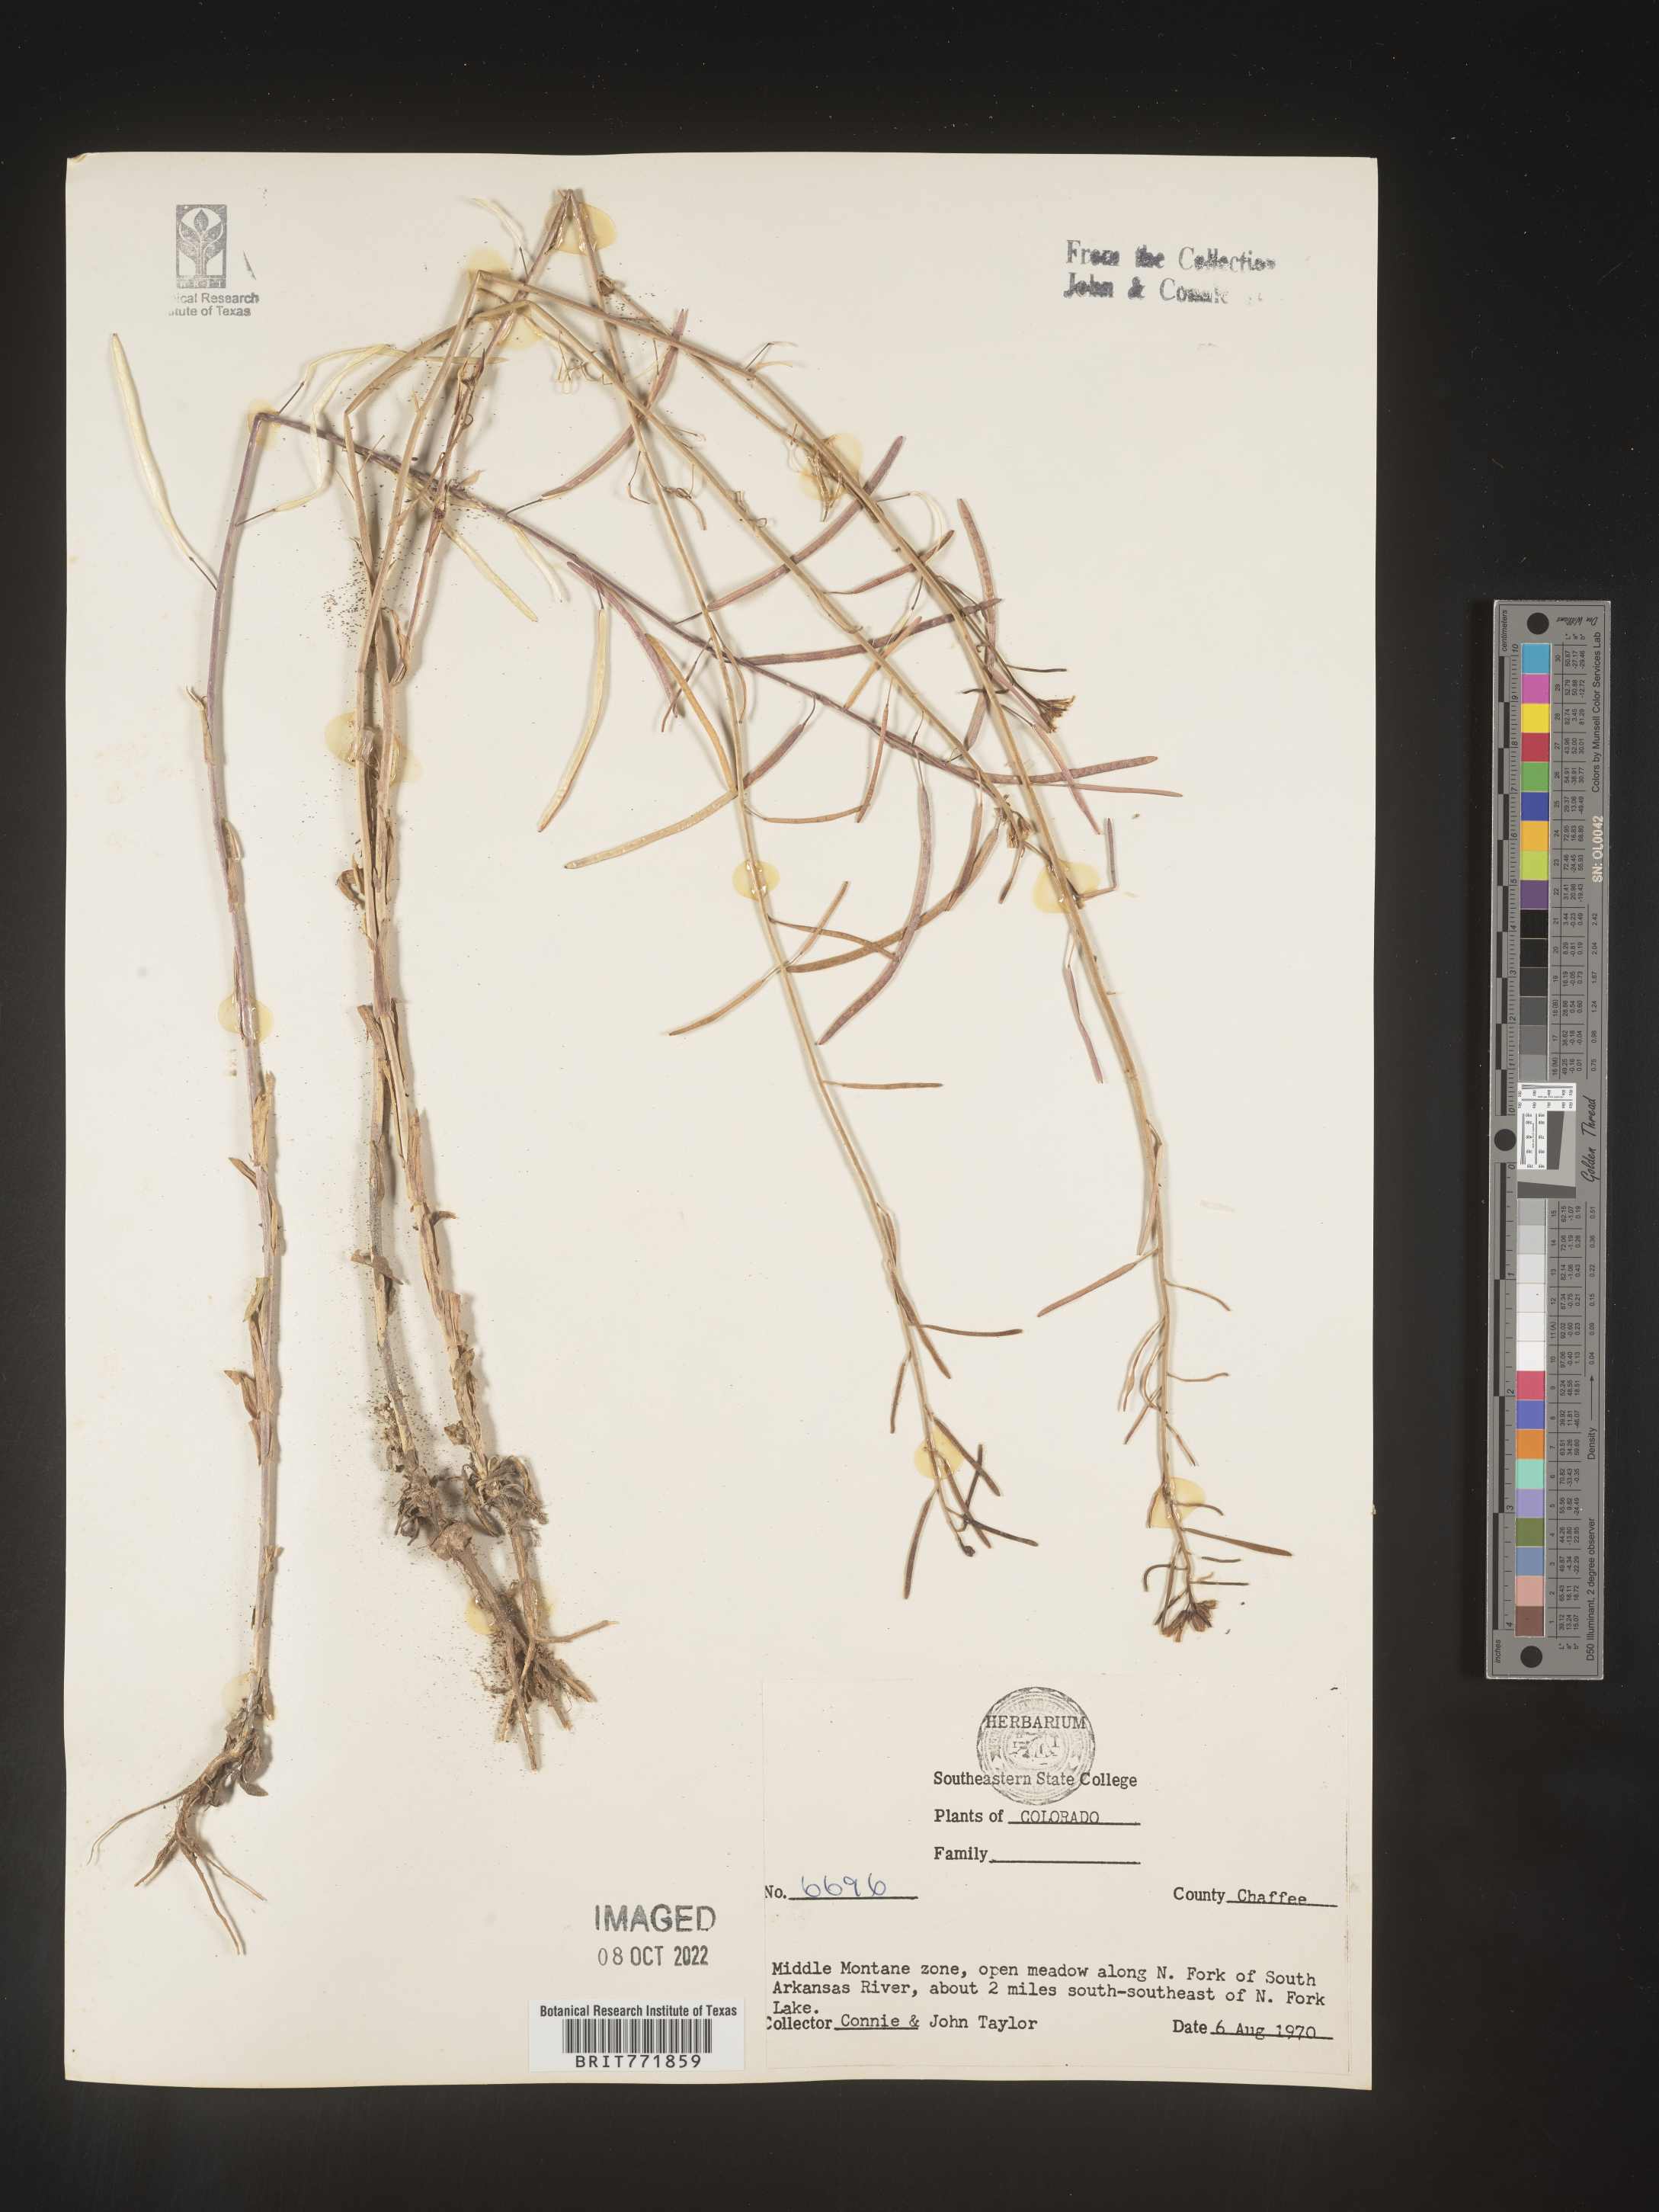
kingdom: Plantae
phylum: Tracheophyta
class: Magnoliopsida
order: Brassicales
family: Brassicaceae
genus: Arabis
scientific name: Arabis
